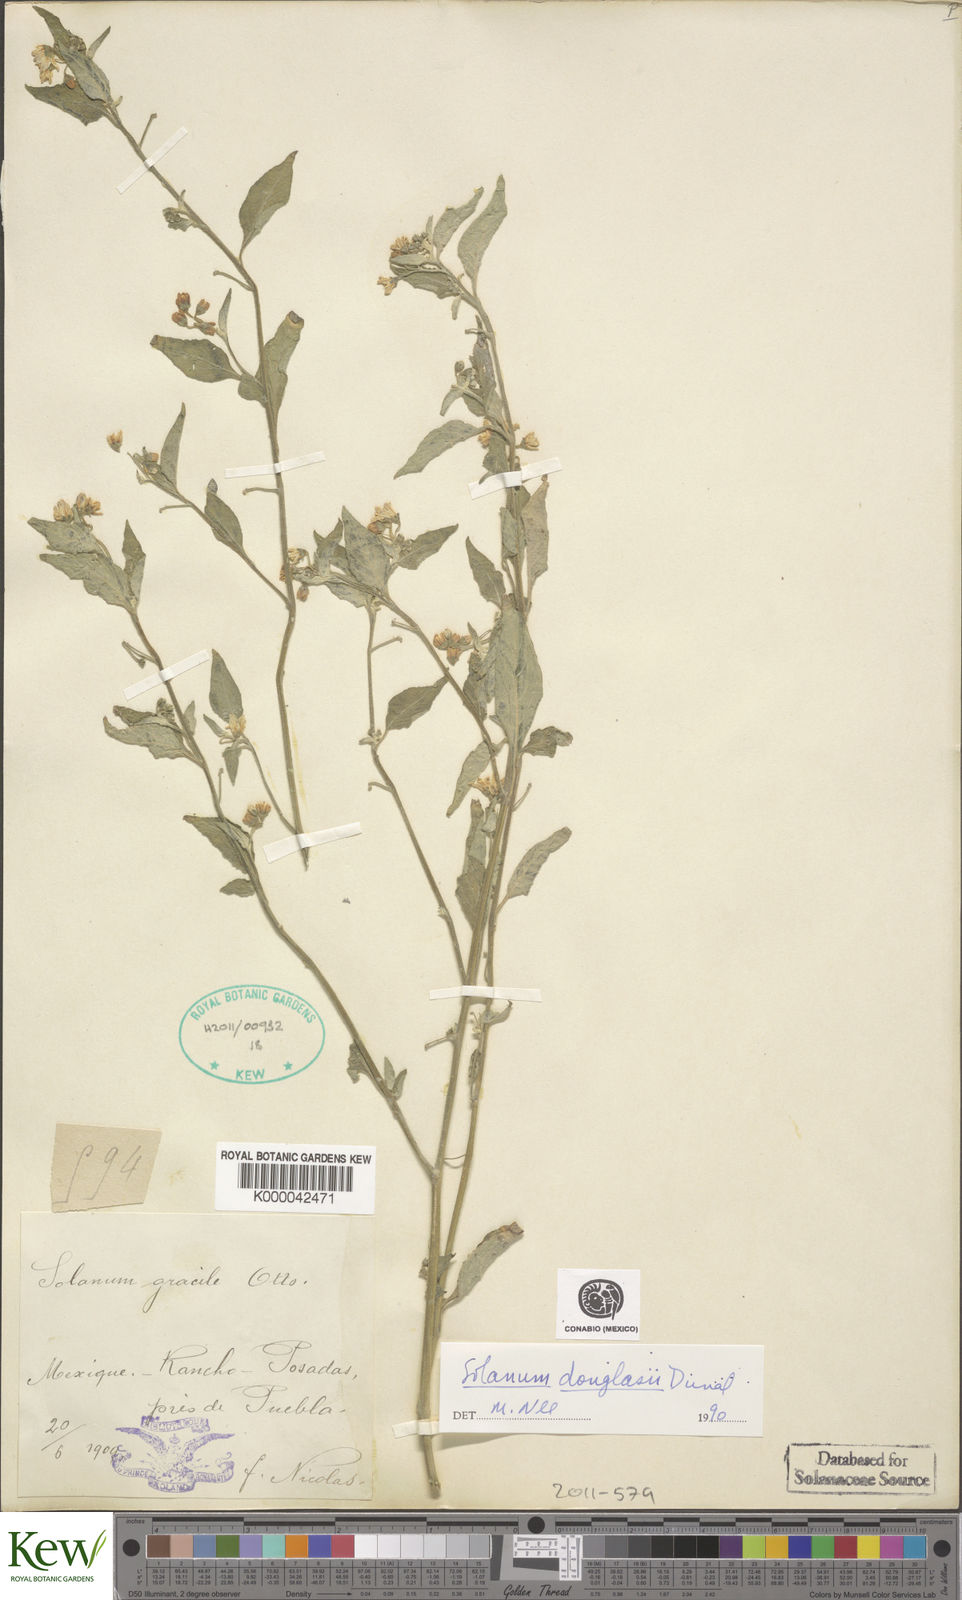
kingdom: Plantae
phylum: Tracheophyta
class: Magnoliopsida
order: Solanales
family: Solanaceae
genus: Solanum
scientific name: Solanum douglasii
